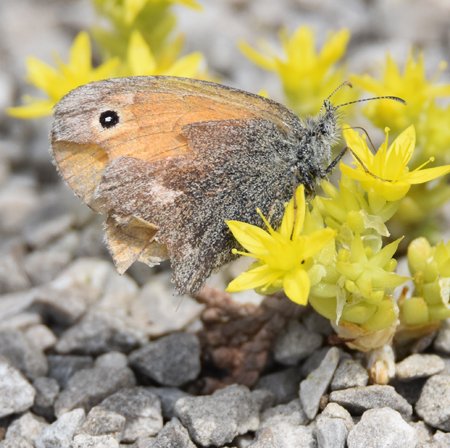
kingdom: Animalia
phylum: Arthropoda
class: Insecta
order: Lepidoptera
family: Nymphalidae
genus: Coenonympha
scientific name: Coenonympha tullia
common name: Large Heath
